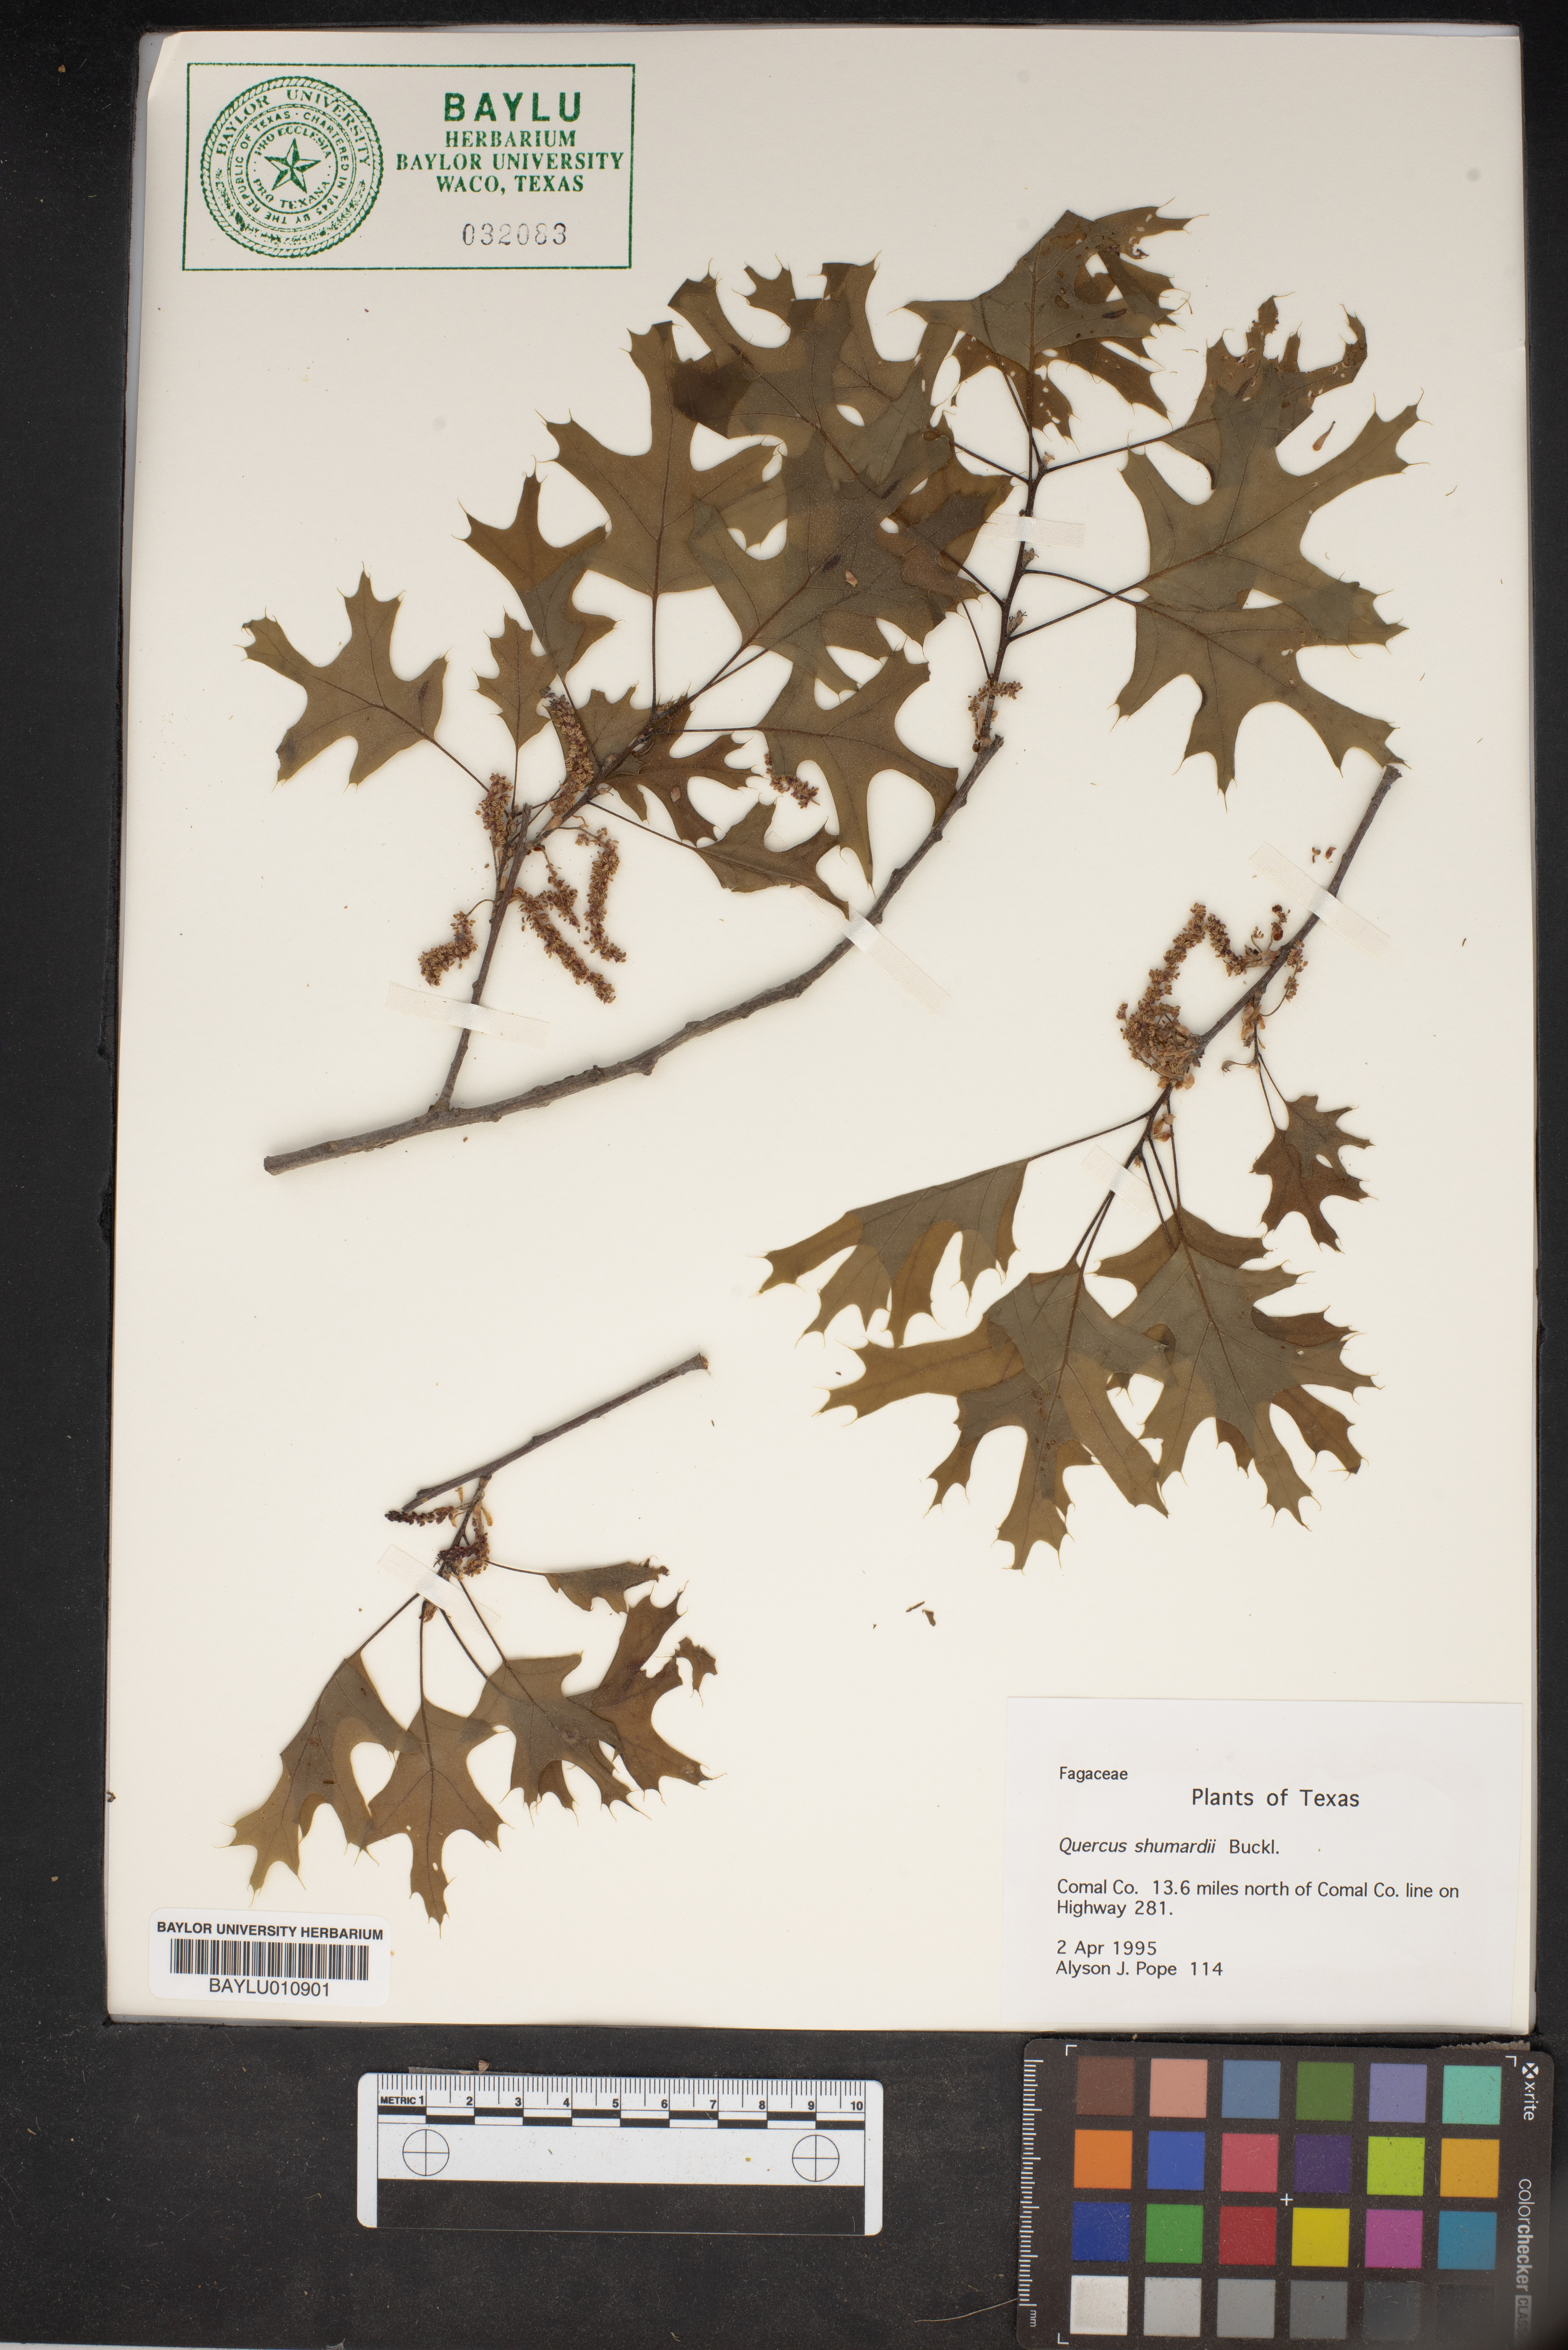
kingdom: Plantae
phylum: Tracheophyta
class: Magnoliopsida
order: Fagales
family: Fagaceae
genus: Quercus
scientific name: Quercus shumardii
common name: Shumard oak
